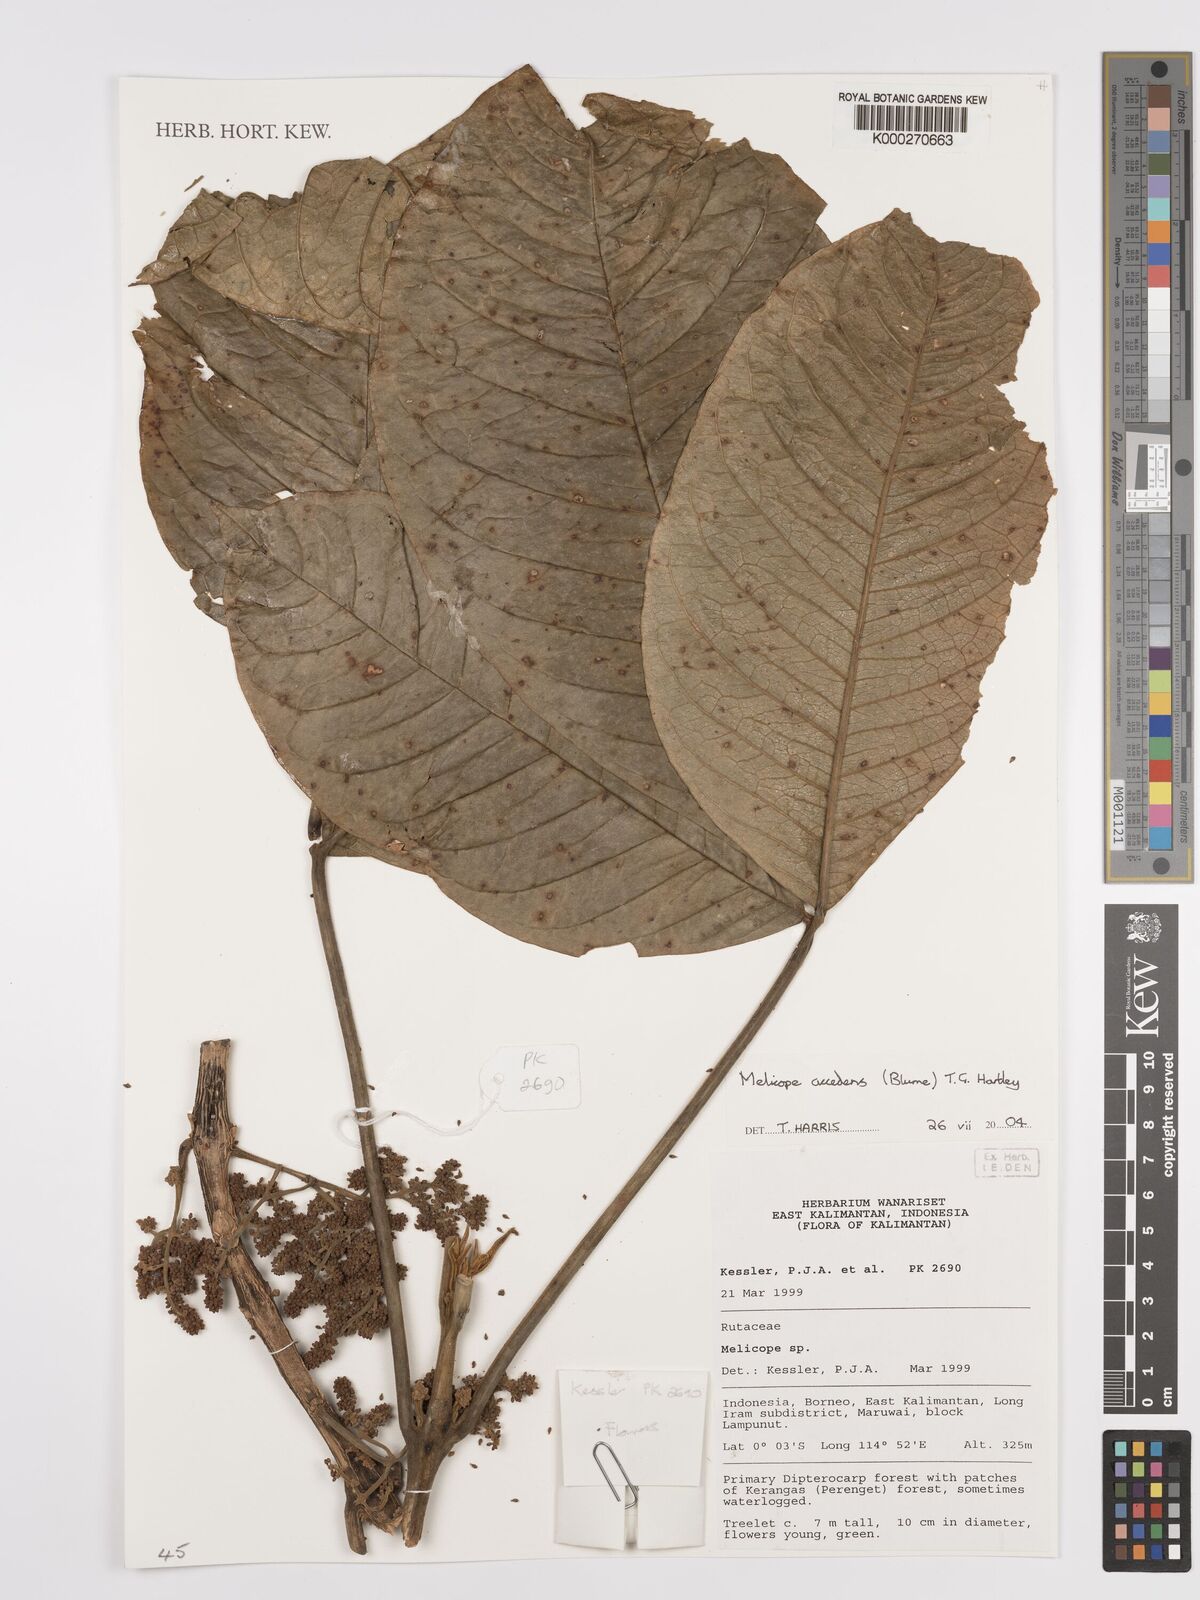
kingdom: Plantae
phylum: Tracheophyta
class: Magnoliopsida
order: Sapindales
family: Rutaceae
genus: Melicope
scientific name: Melicope accedens
